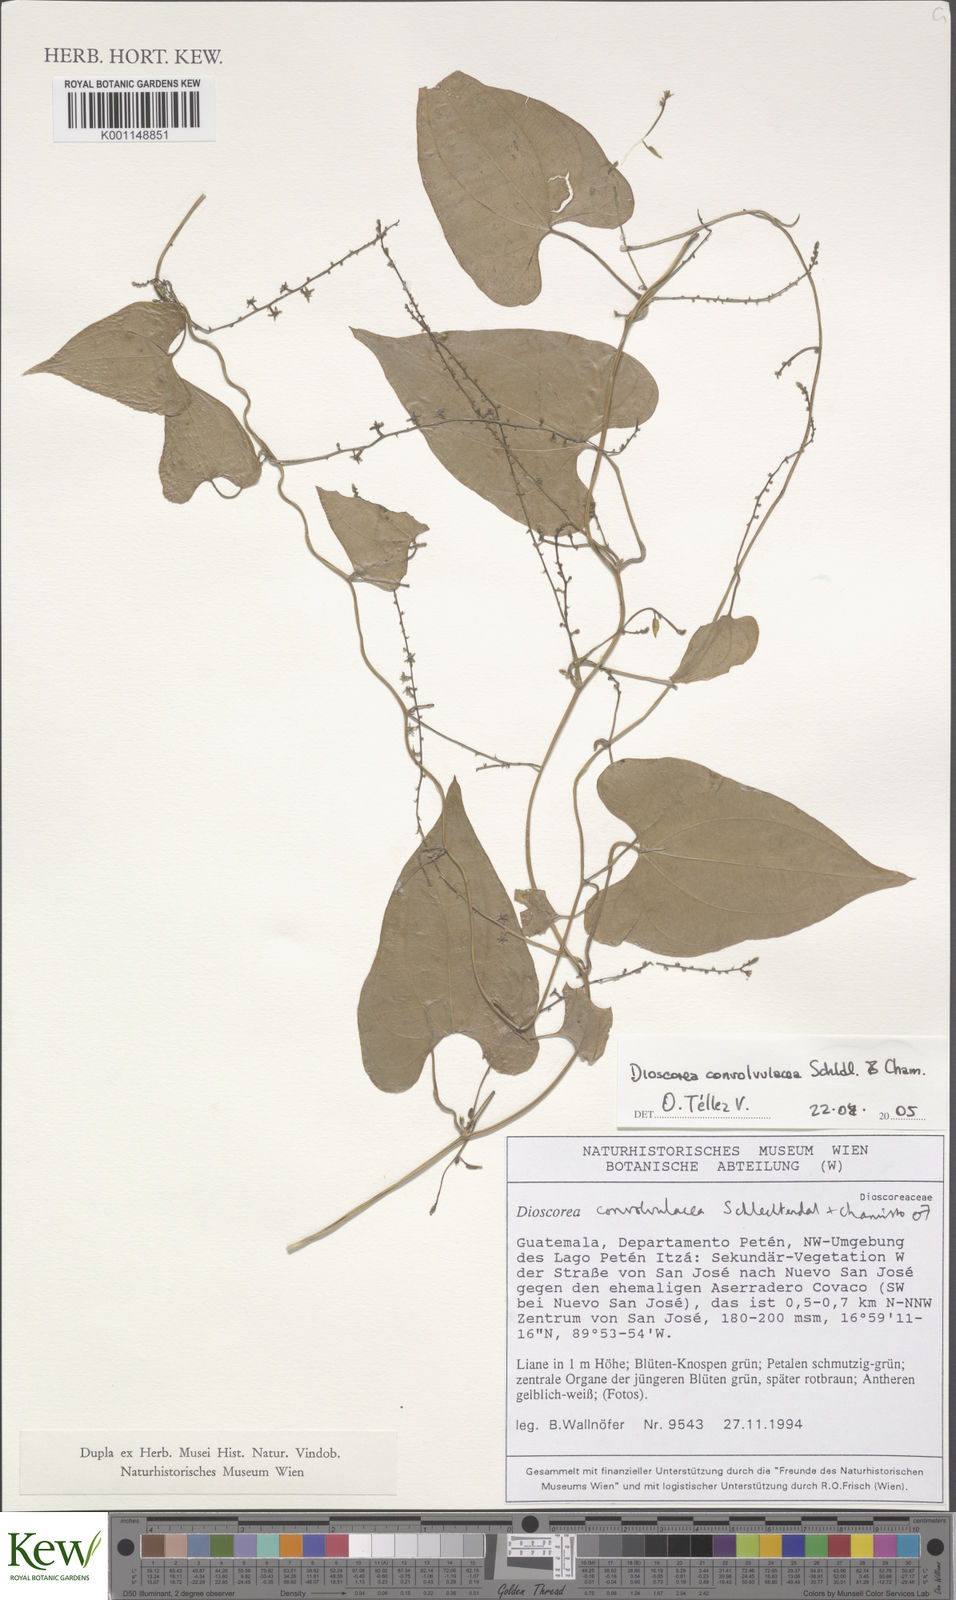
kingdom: Plantae
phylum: Tracheophyta
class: Liliopsida
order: Dioscoreales
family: Dioscoreaceae
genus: Dioscorea
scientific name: Dioscorea convolvulacea
